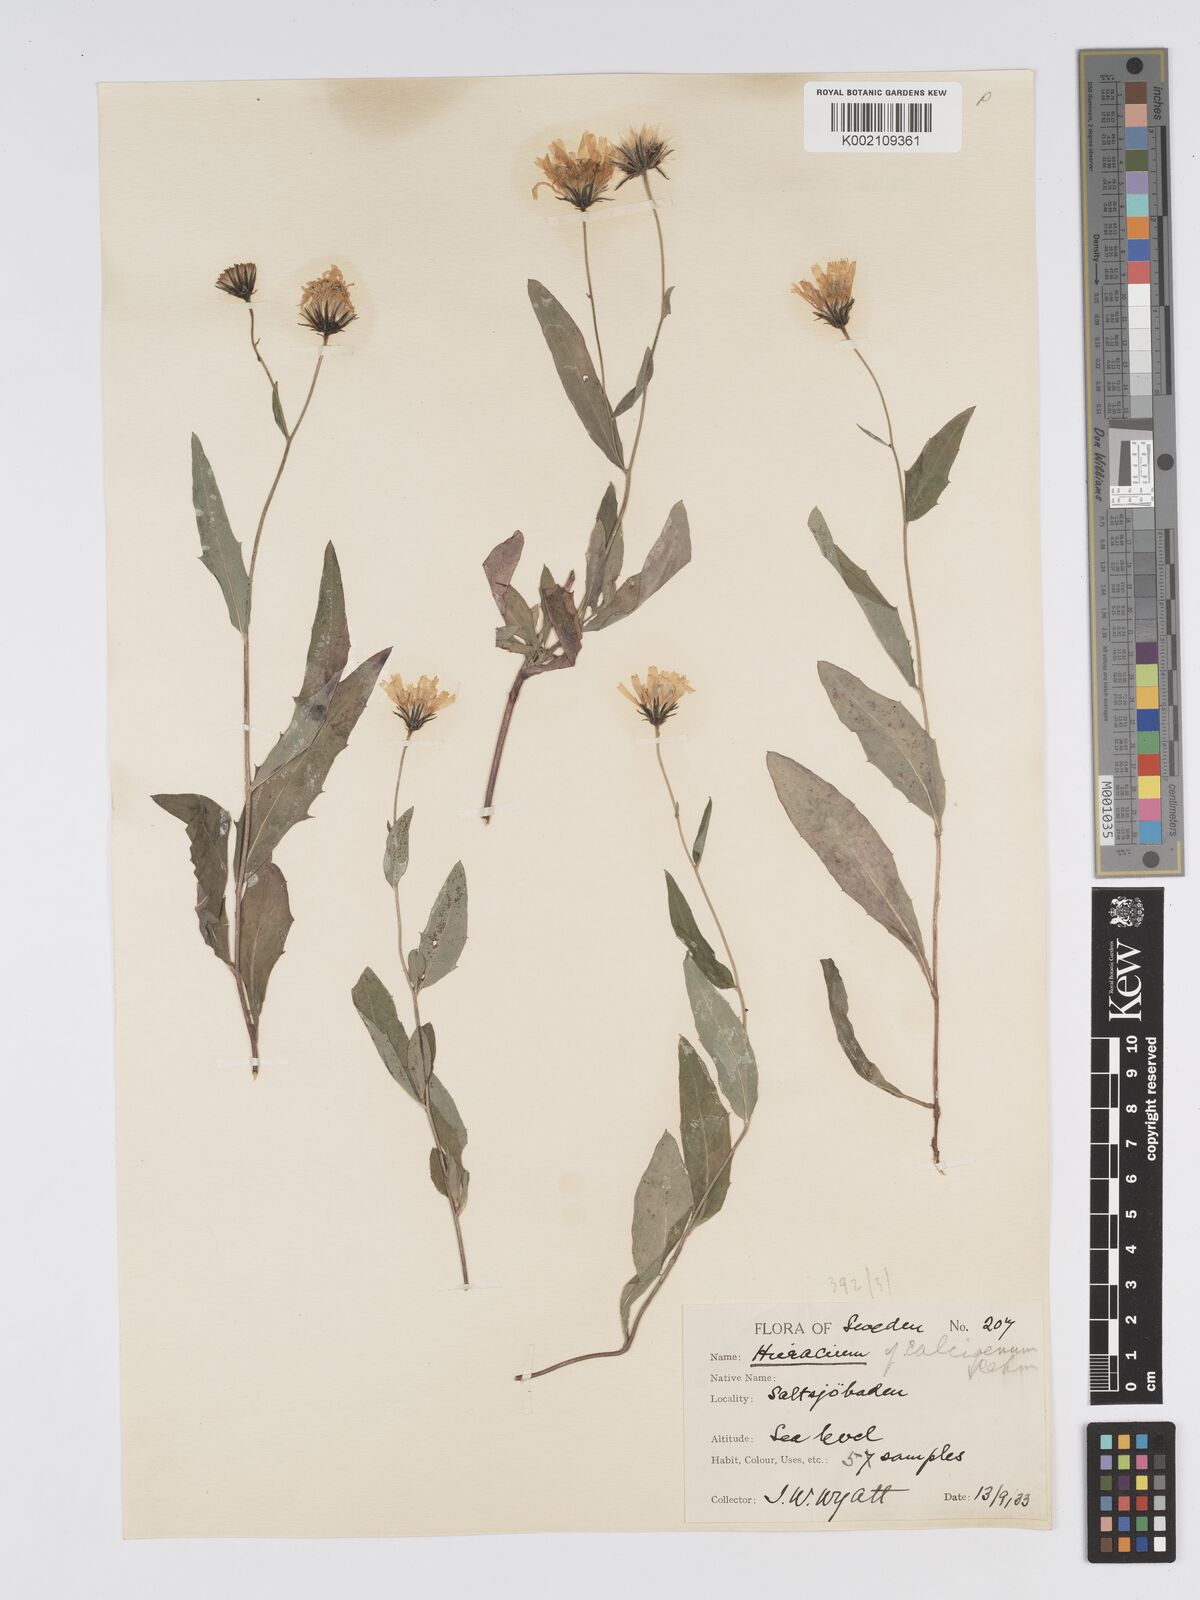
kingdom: Plantae
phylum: Tracheophyta
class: Magnoliopsida
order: Asterales
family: Asteraceae
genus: Hieracium
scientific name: Hieracium levicaule
